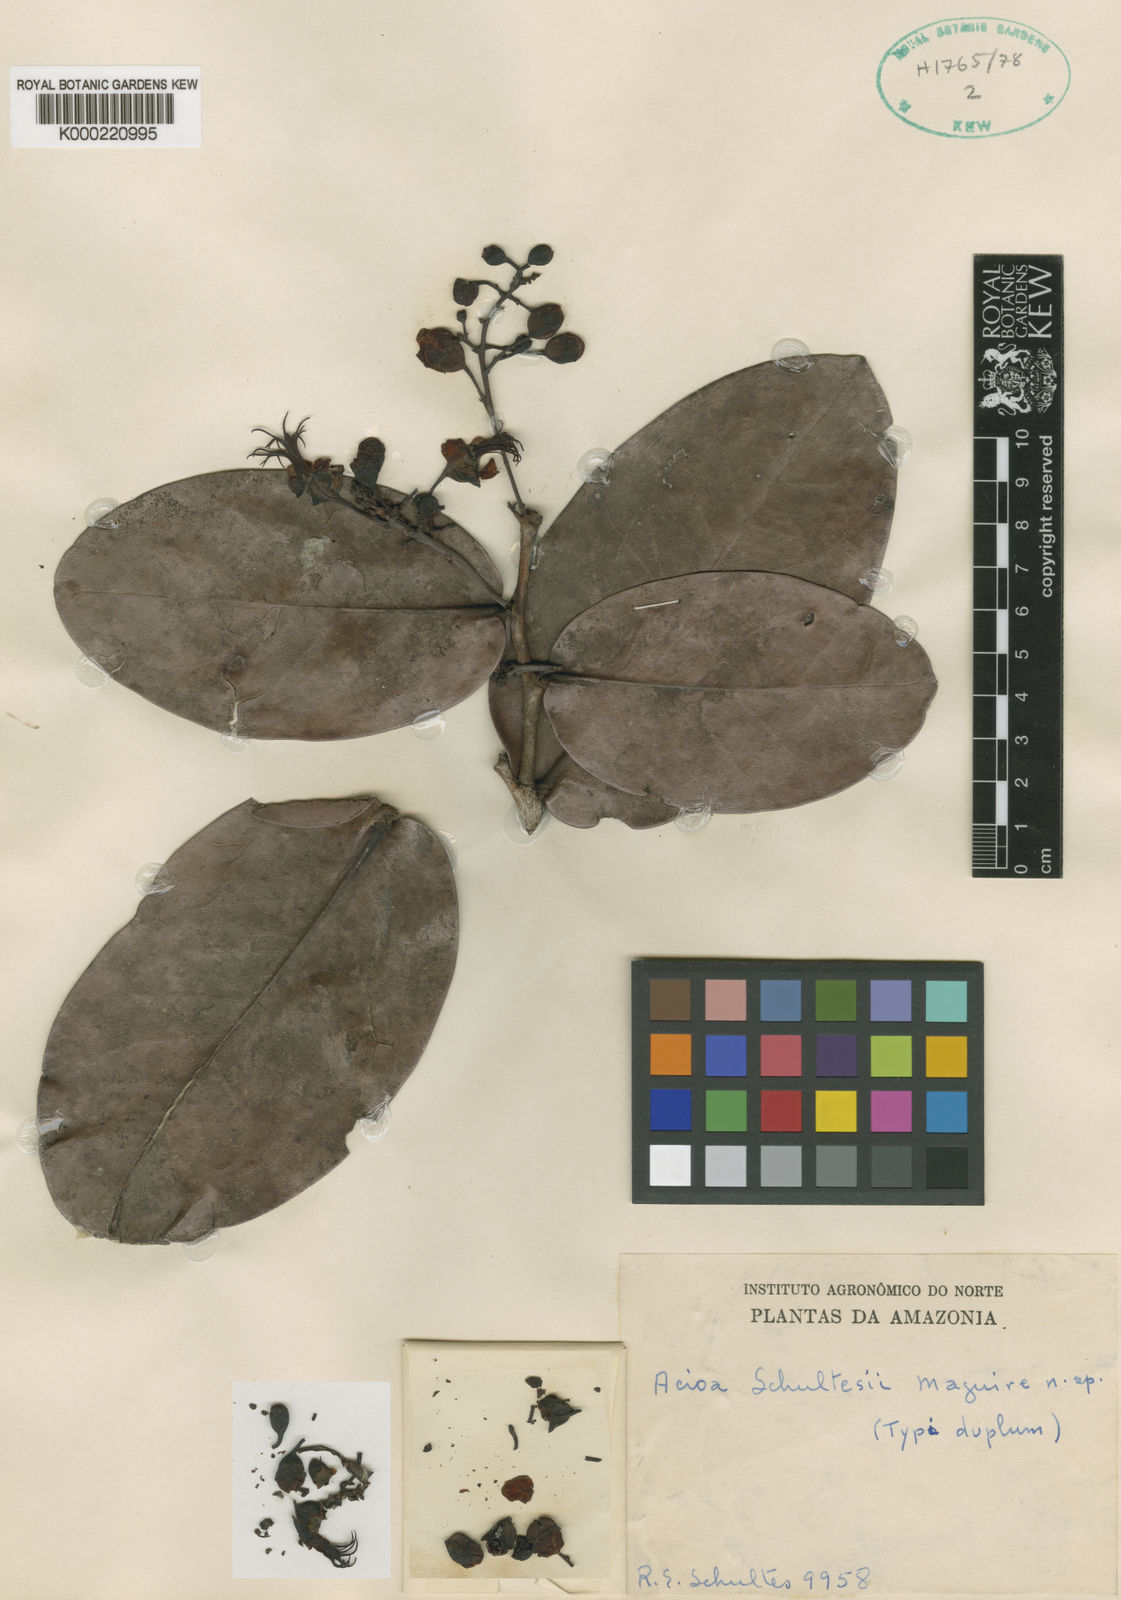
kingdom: Plantae
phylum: Tracheophyta
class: Magnoliopsida
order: Malpighiales
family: Chrysobalanaceae
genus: Acioa
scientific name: Acioa schultesii
